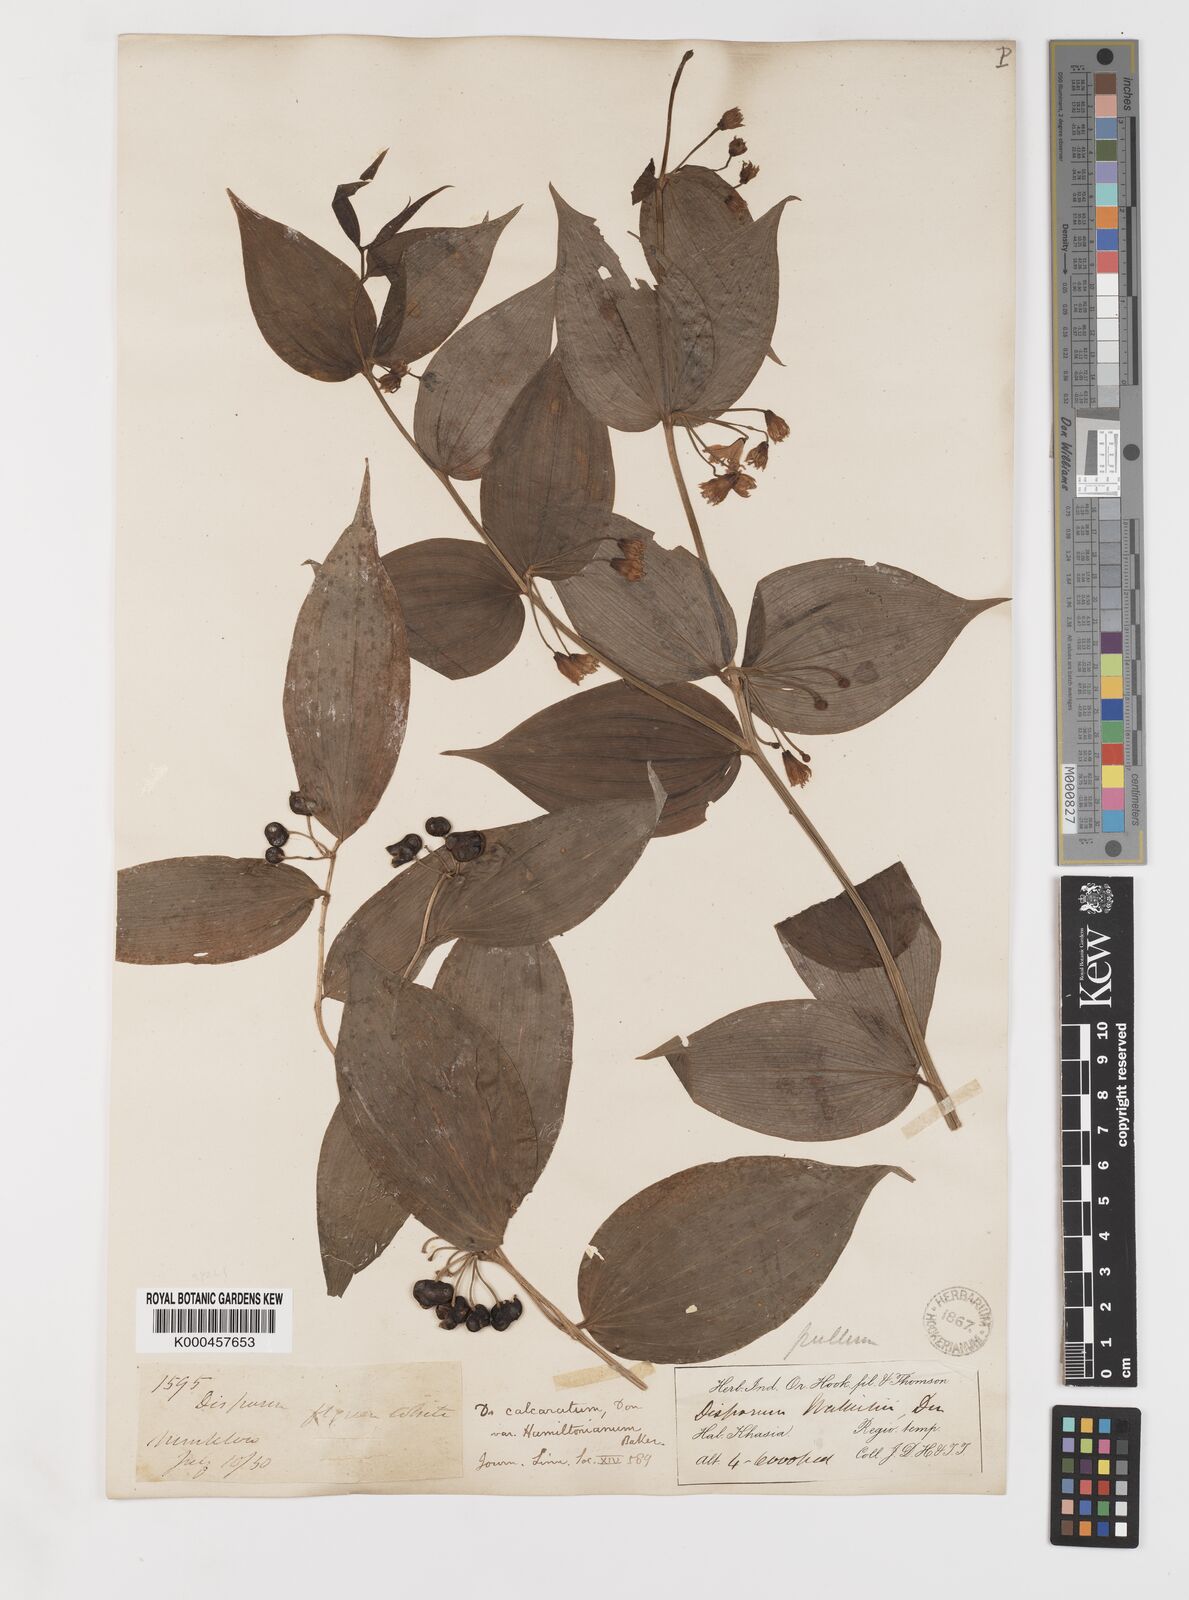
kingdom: Plantae
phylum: Tracheophyta
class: Liliopsida
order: Liliales
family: Colchicaceae
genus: Disporum
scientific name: Disporum calcaratum
